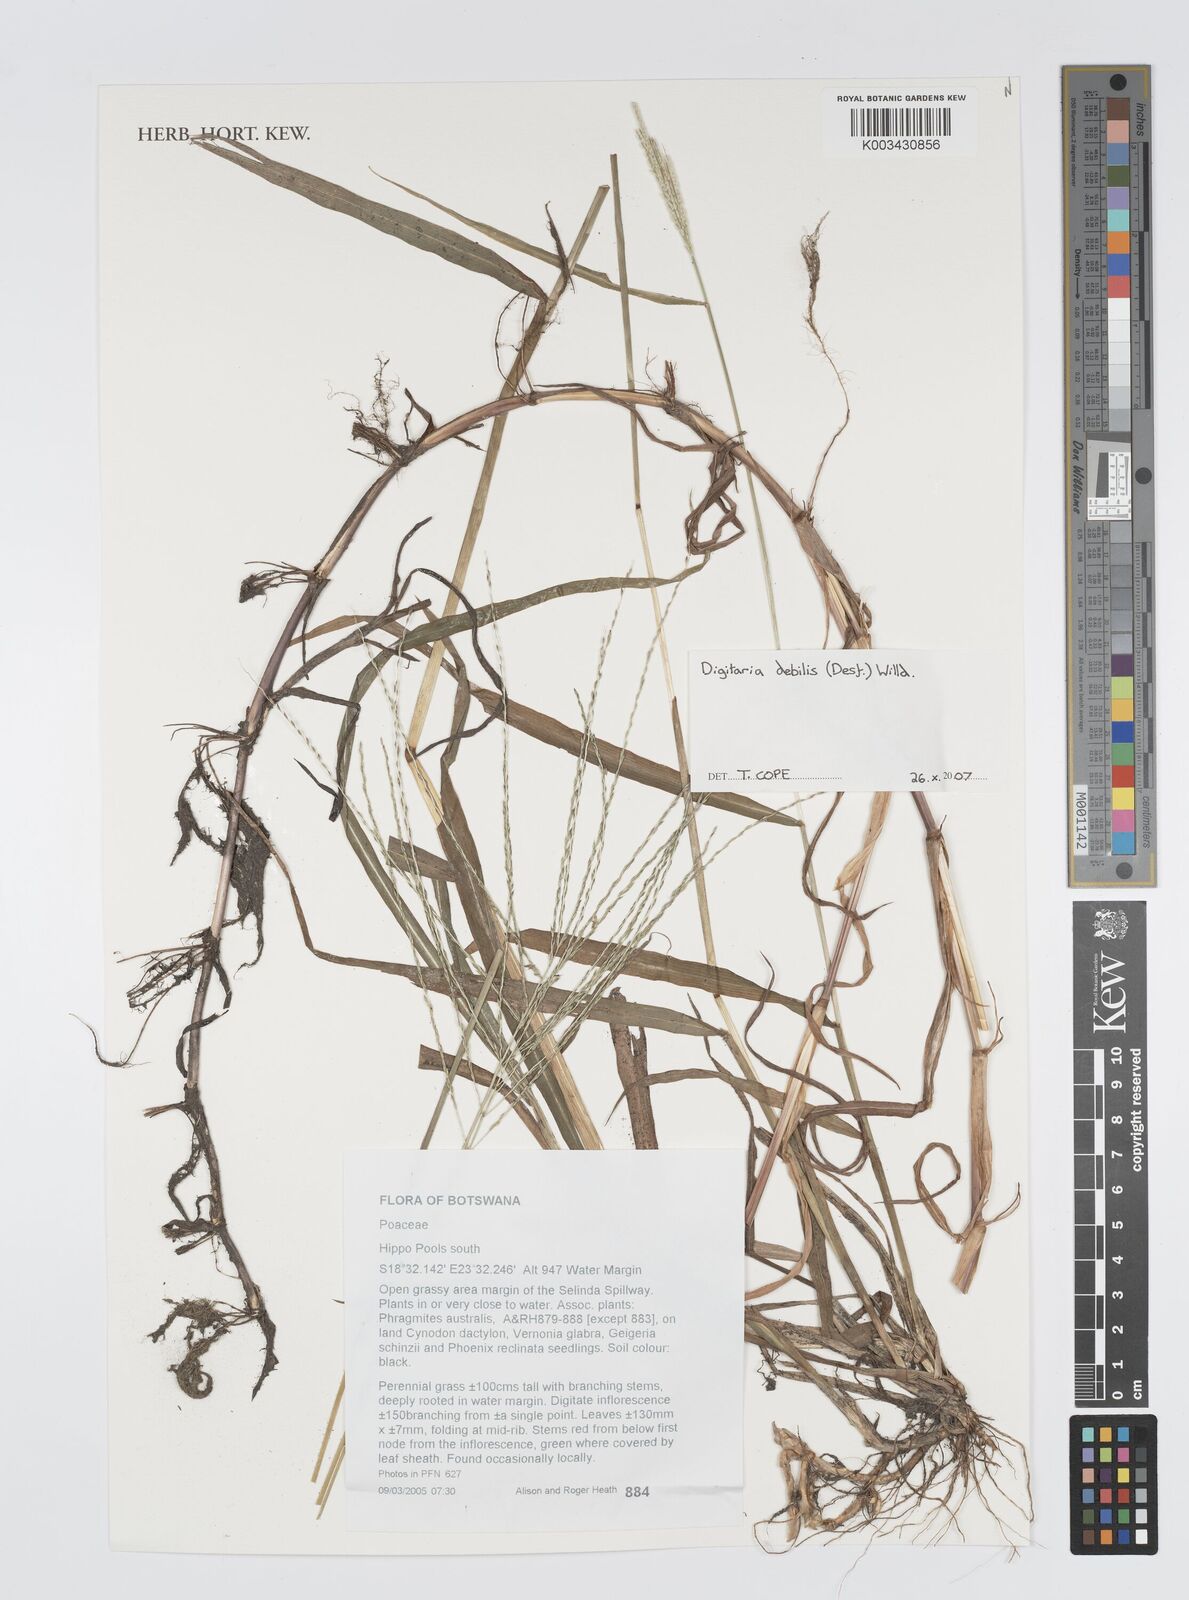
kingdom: Plantae
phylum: Tracheophyta
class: Liliopsida
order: Poales
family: Poaceae
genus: Digitaria
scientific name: Digitaria debilis
